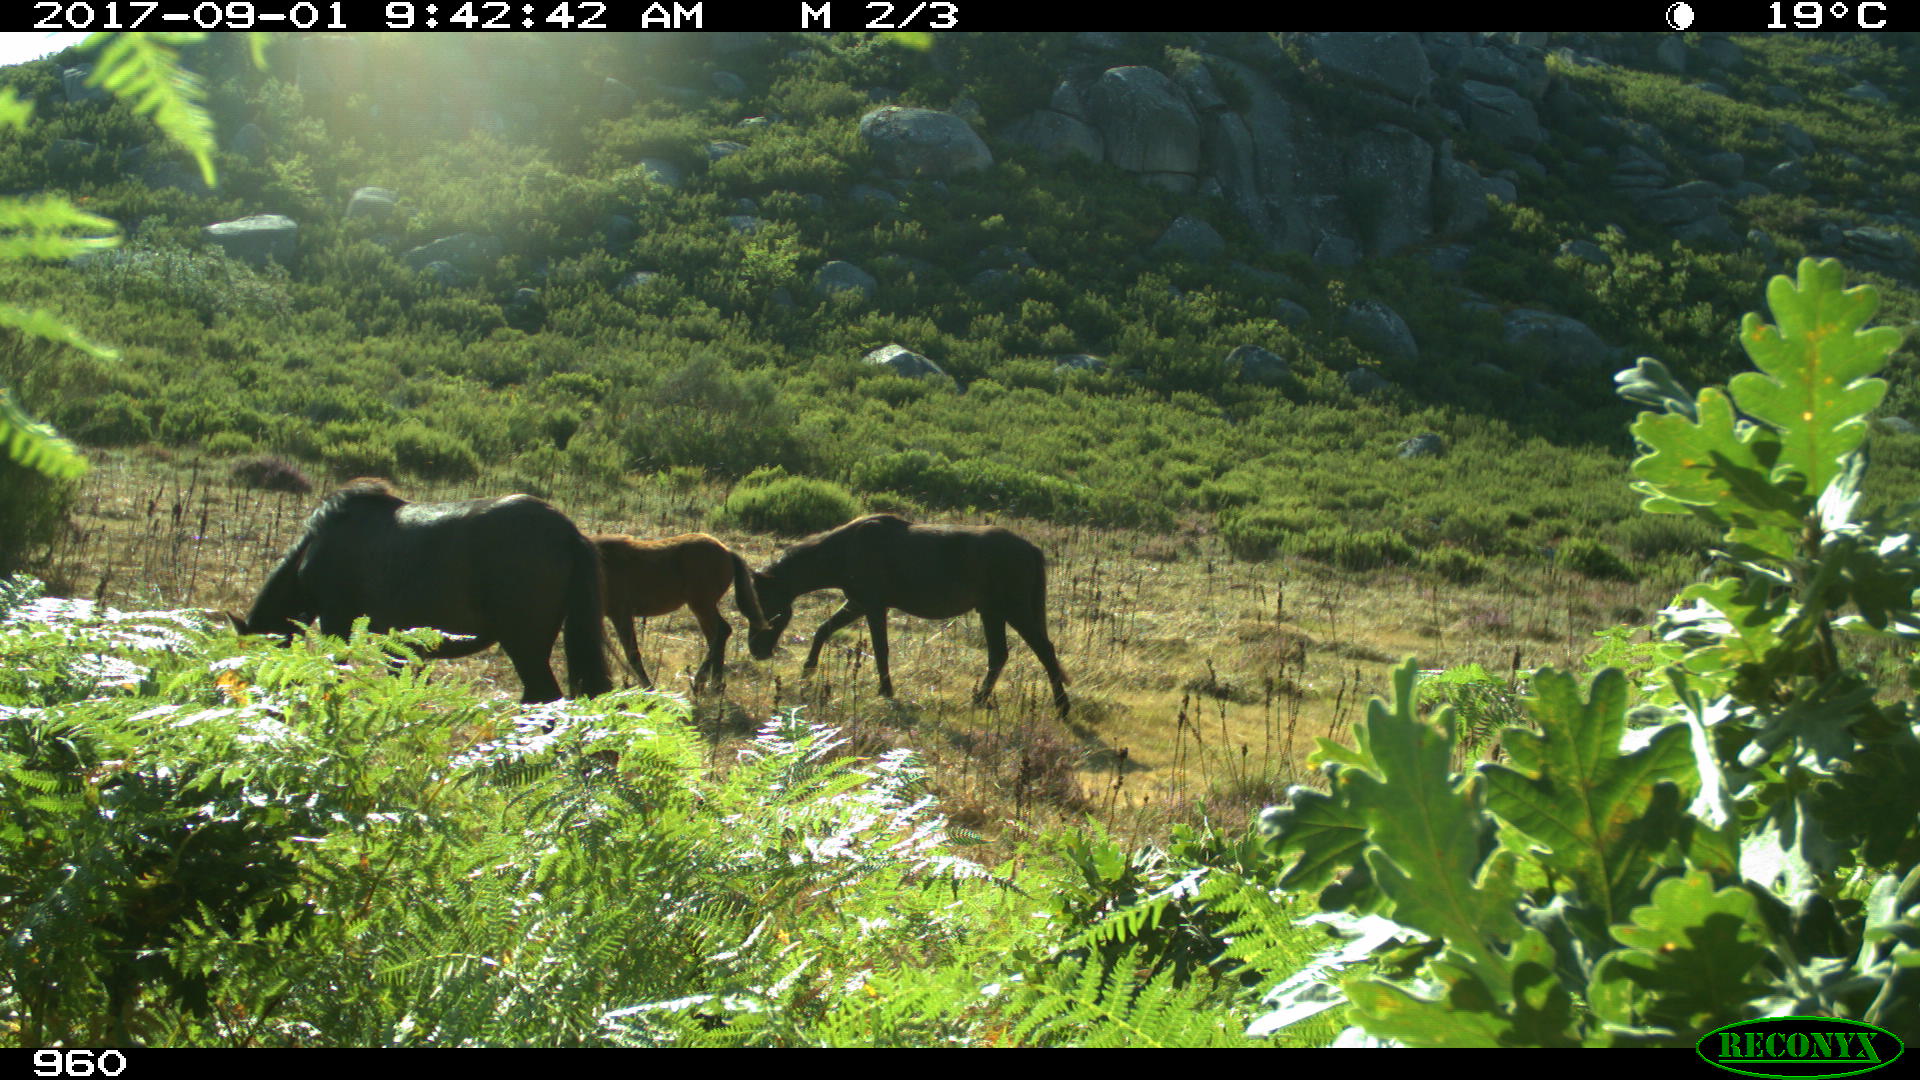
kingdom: Animalia
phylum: Chordata
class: Mammalia
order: Perissodactyla
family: Equidae
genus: Equus
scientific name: Equus caballus
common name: Horse
